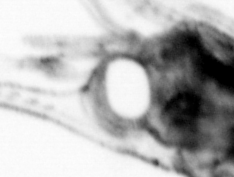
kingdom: Animalia
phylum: Arthropoda
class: Malacostraca
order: Decapoda
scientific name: Decapoda
